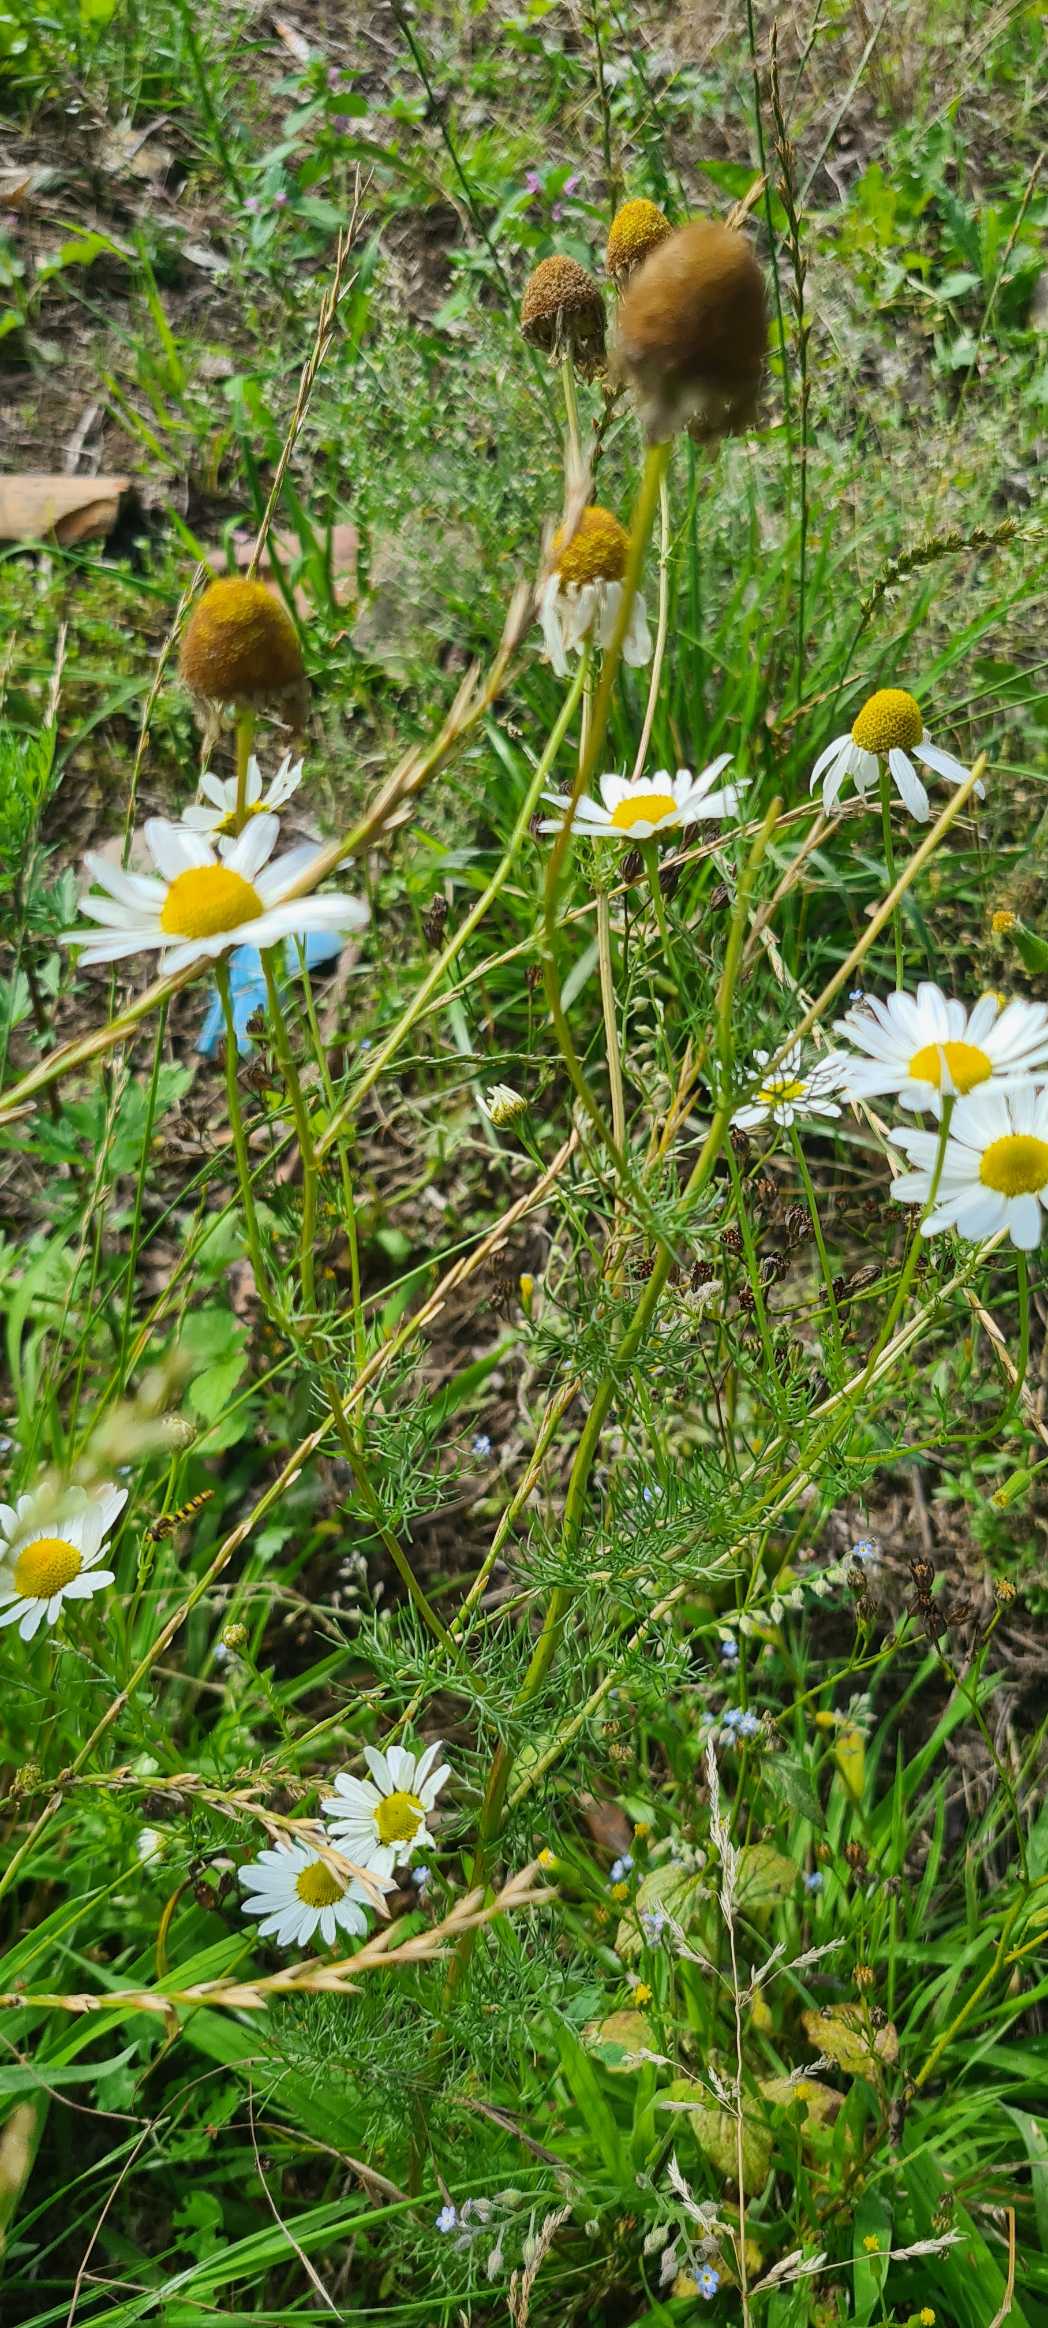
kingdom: Plantae
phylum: Tracheophyta
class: Magnoliopsida
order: Asterales
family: Asteraceae
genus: Tripleurospermum
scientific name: Tripleurospermum inodorum
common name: Lugtløs kamille
